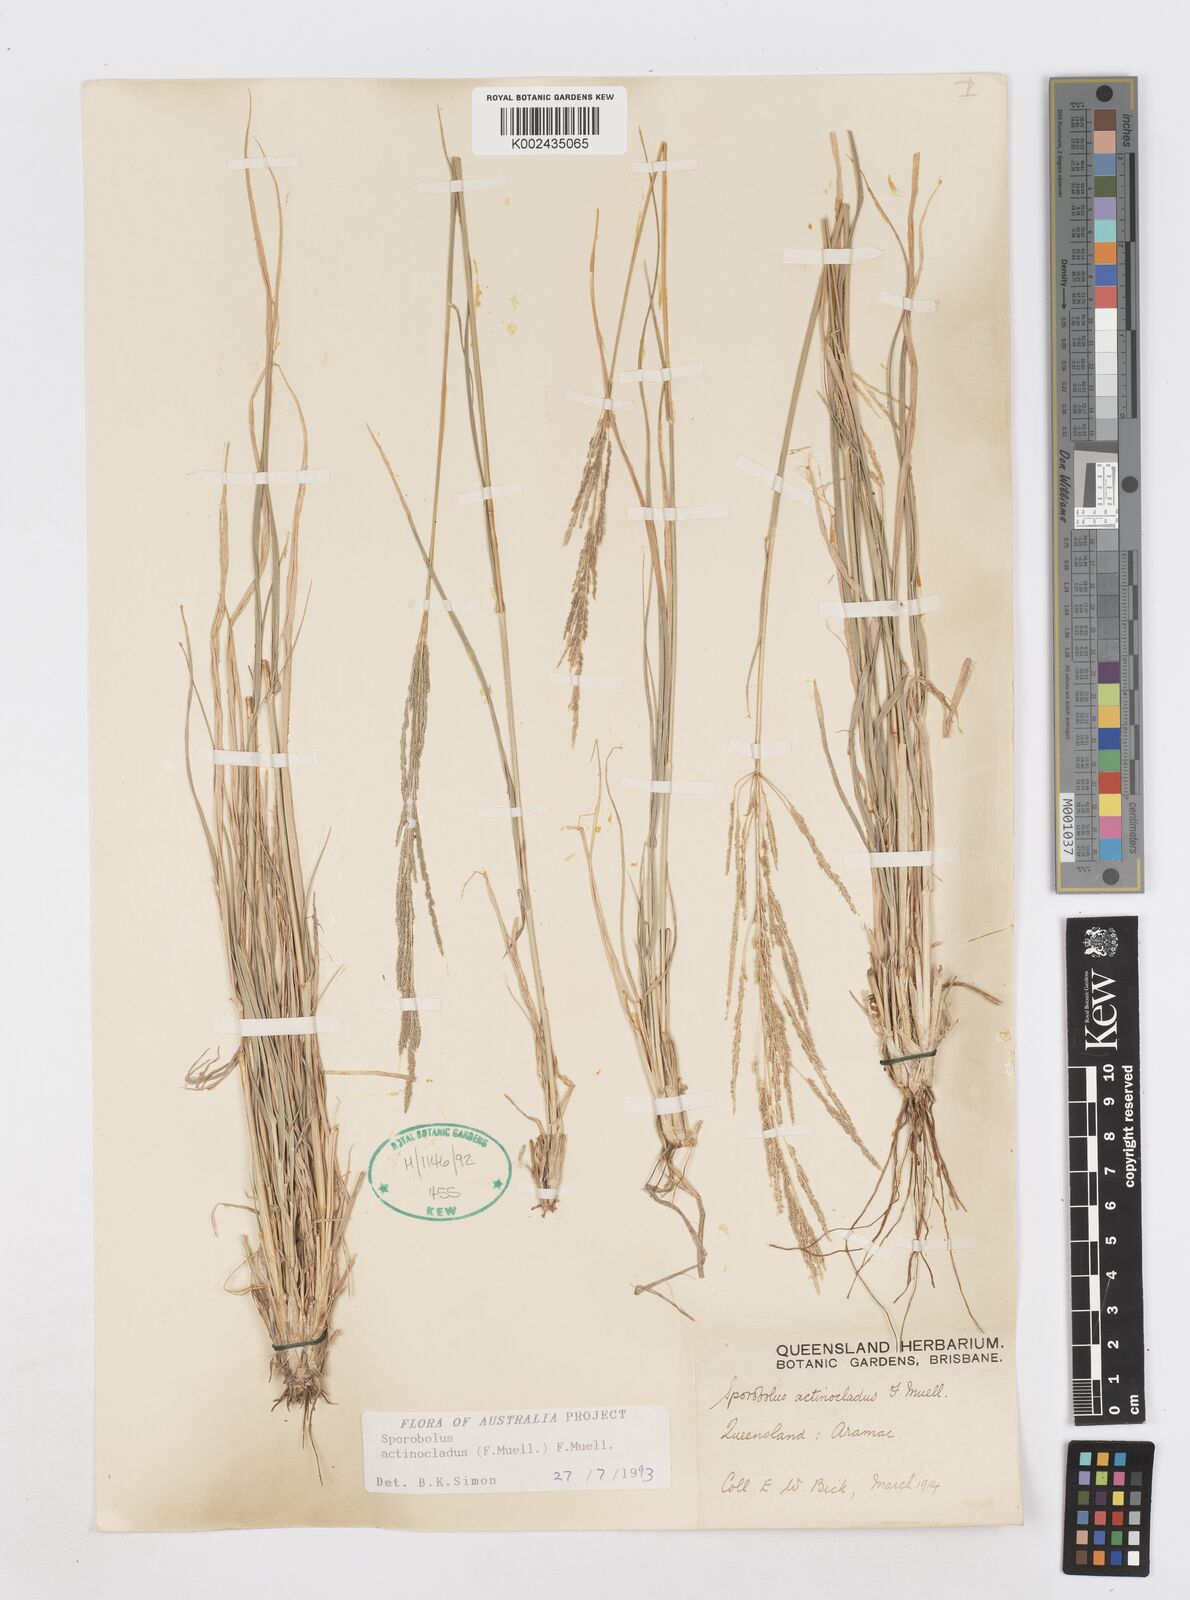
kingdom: Plantae
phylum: Tracheophyta
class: Liliopsida
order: Poales
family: Poaceae
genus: Sporobolus
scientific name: Sporobolus actinocladus
